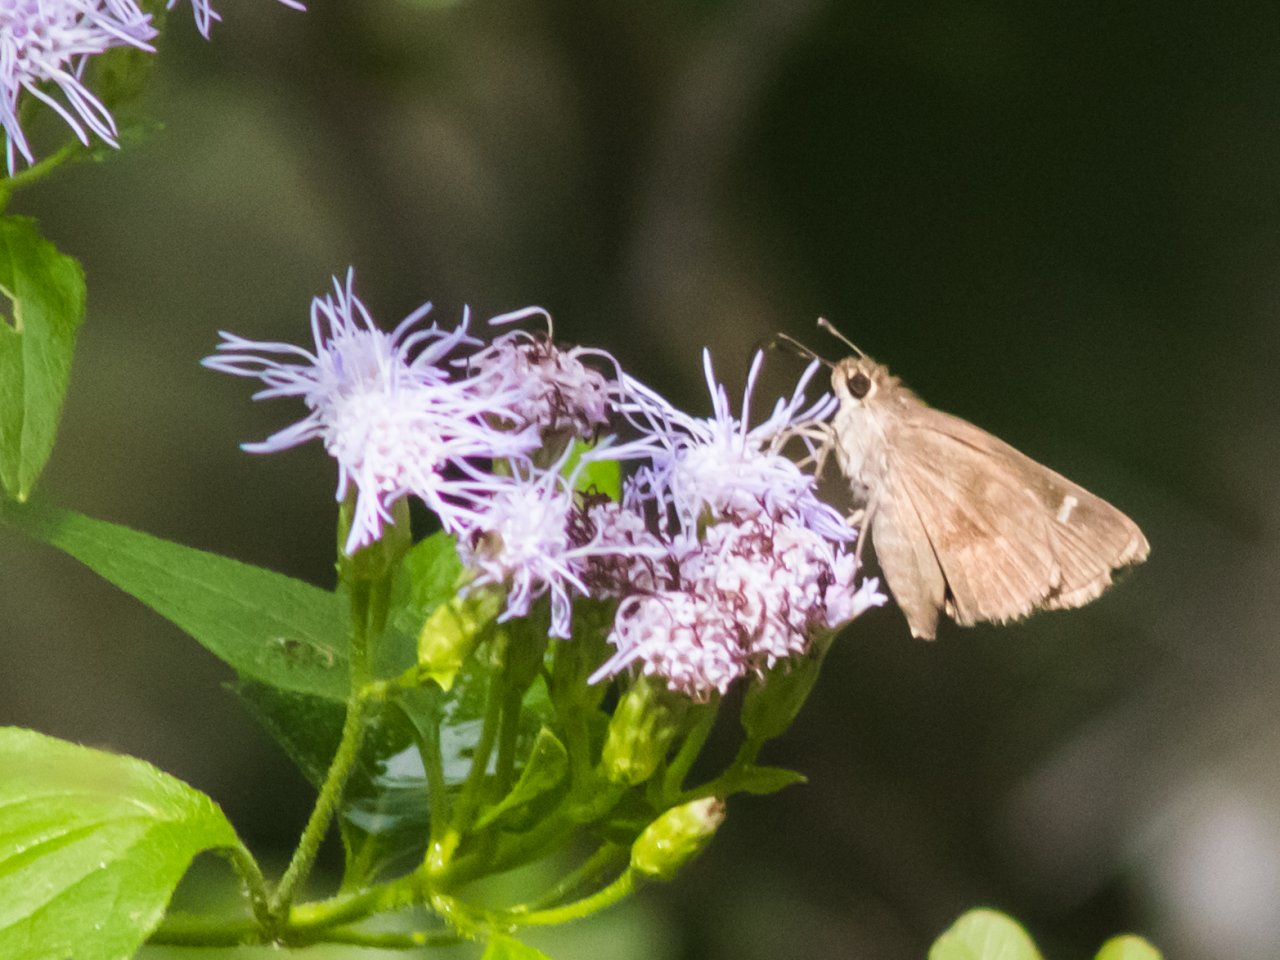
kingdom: Animalia
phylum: Arthropoda
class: Insecta
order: Lepidoptera
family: Hesperiidae
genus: Lerodea
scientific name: Lerodea arabus
